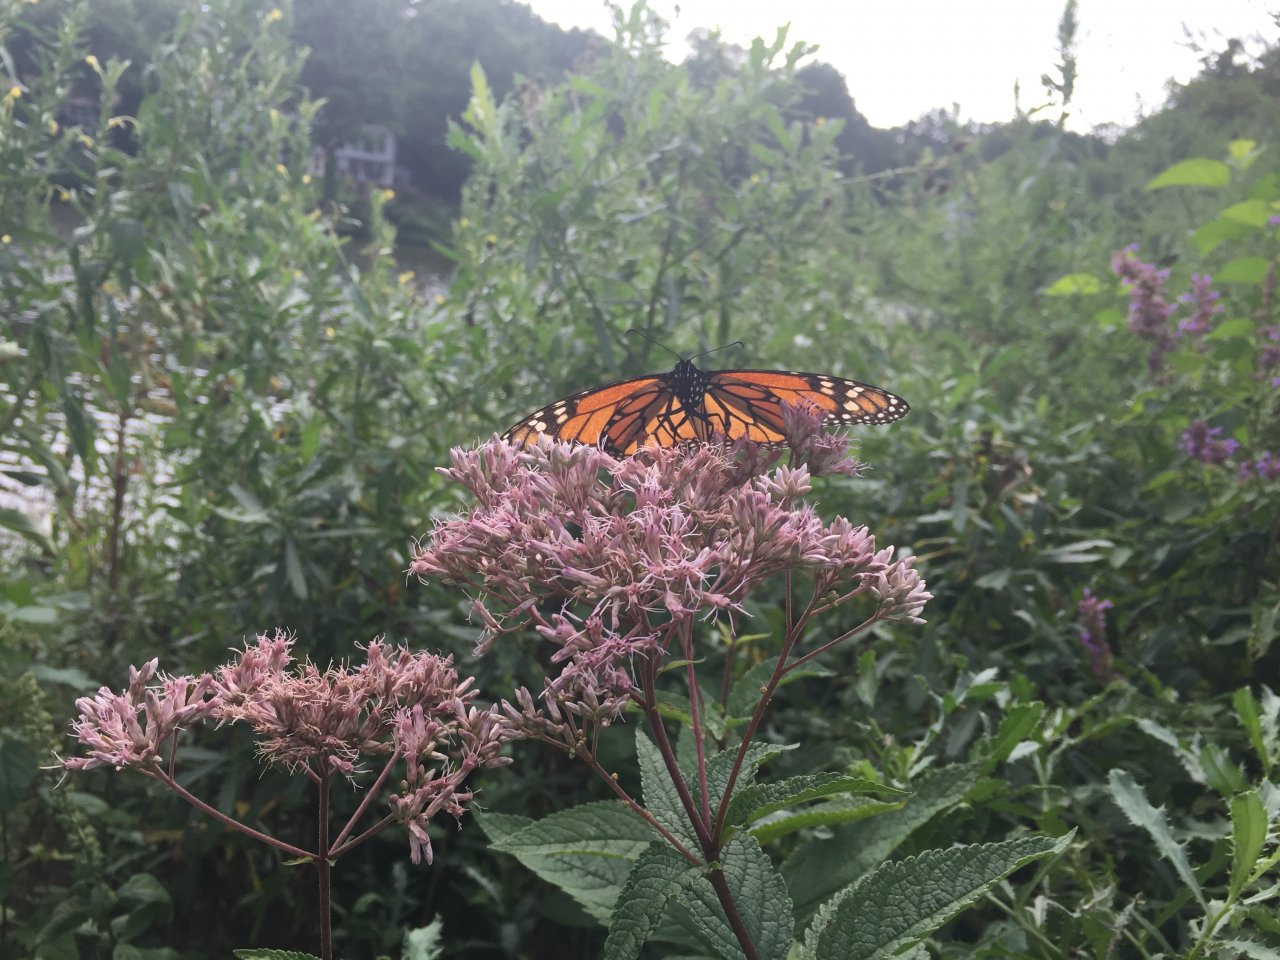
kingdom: Animalia
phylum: Arthropoda
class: Insecta
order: Lepidoptera
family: Nymphalidae
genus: Danaus
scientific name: Danaus plexippus
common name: Monarch
